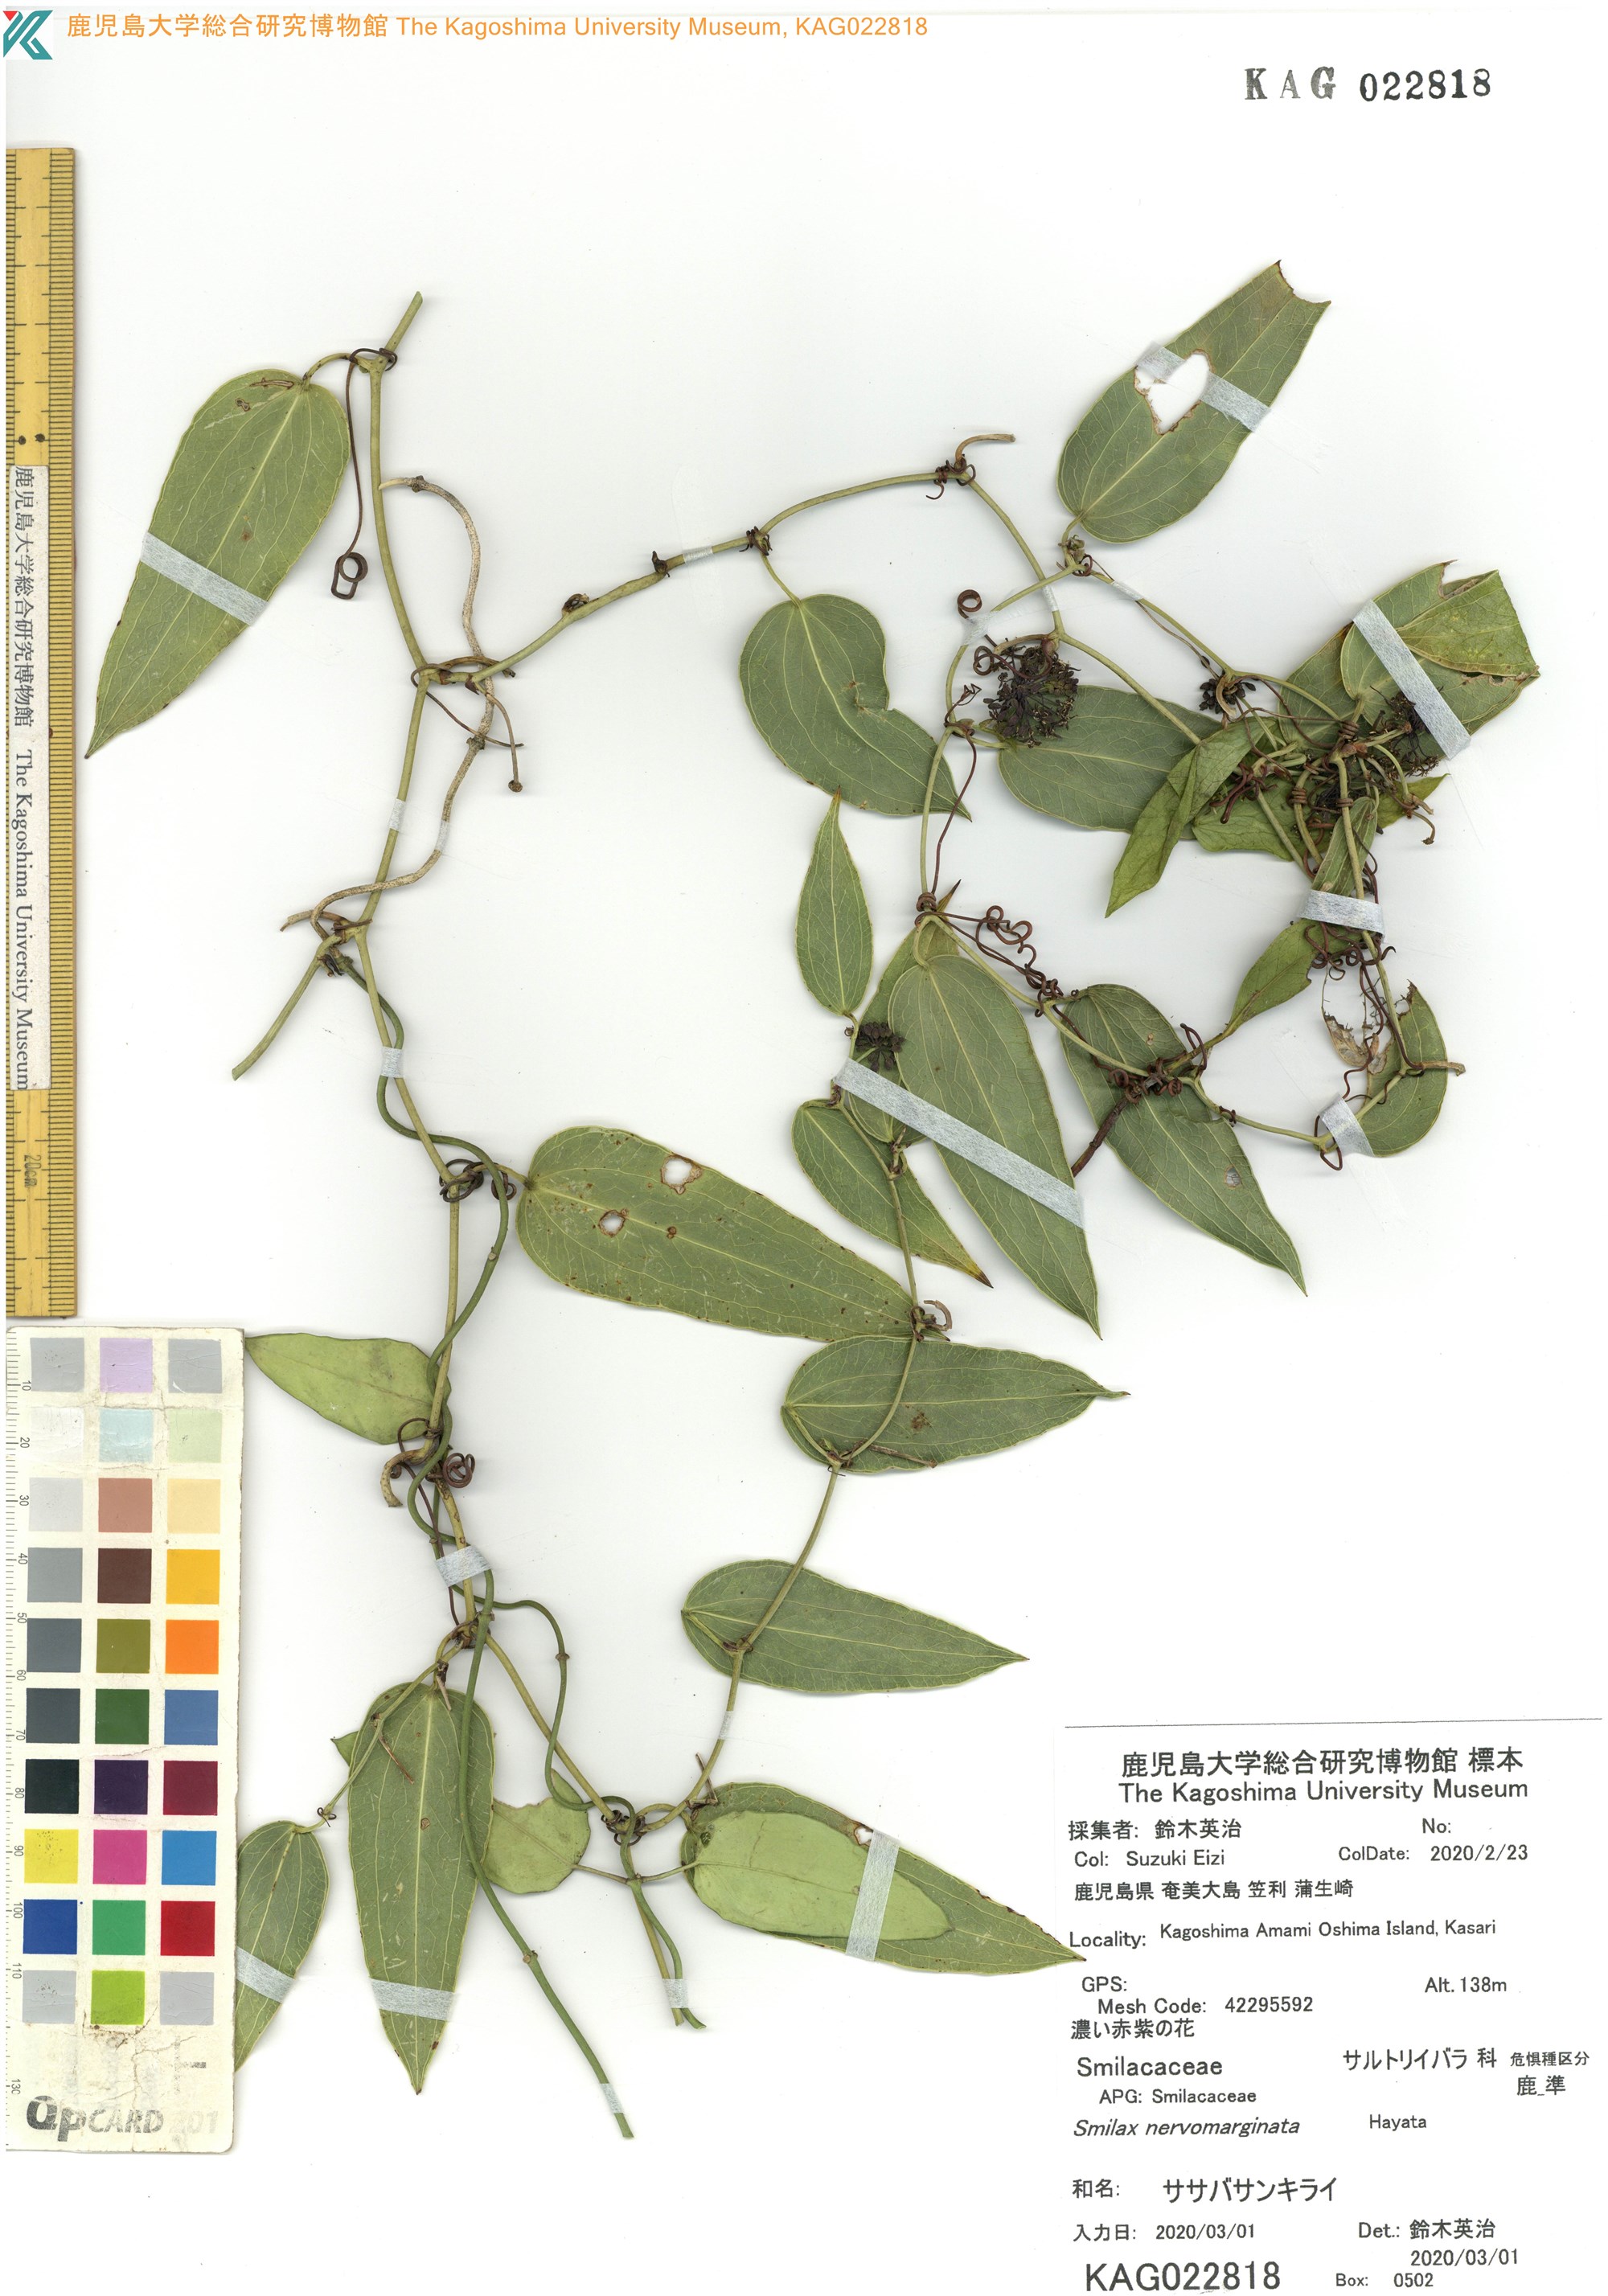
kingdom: Plantae
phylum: Tracheophyta
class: Liliopsida
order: Liliales
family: Smilacaceae
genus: Smilax
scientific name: Smilax nervomarginata
